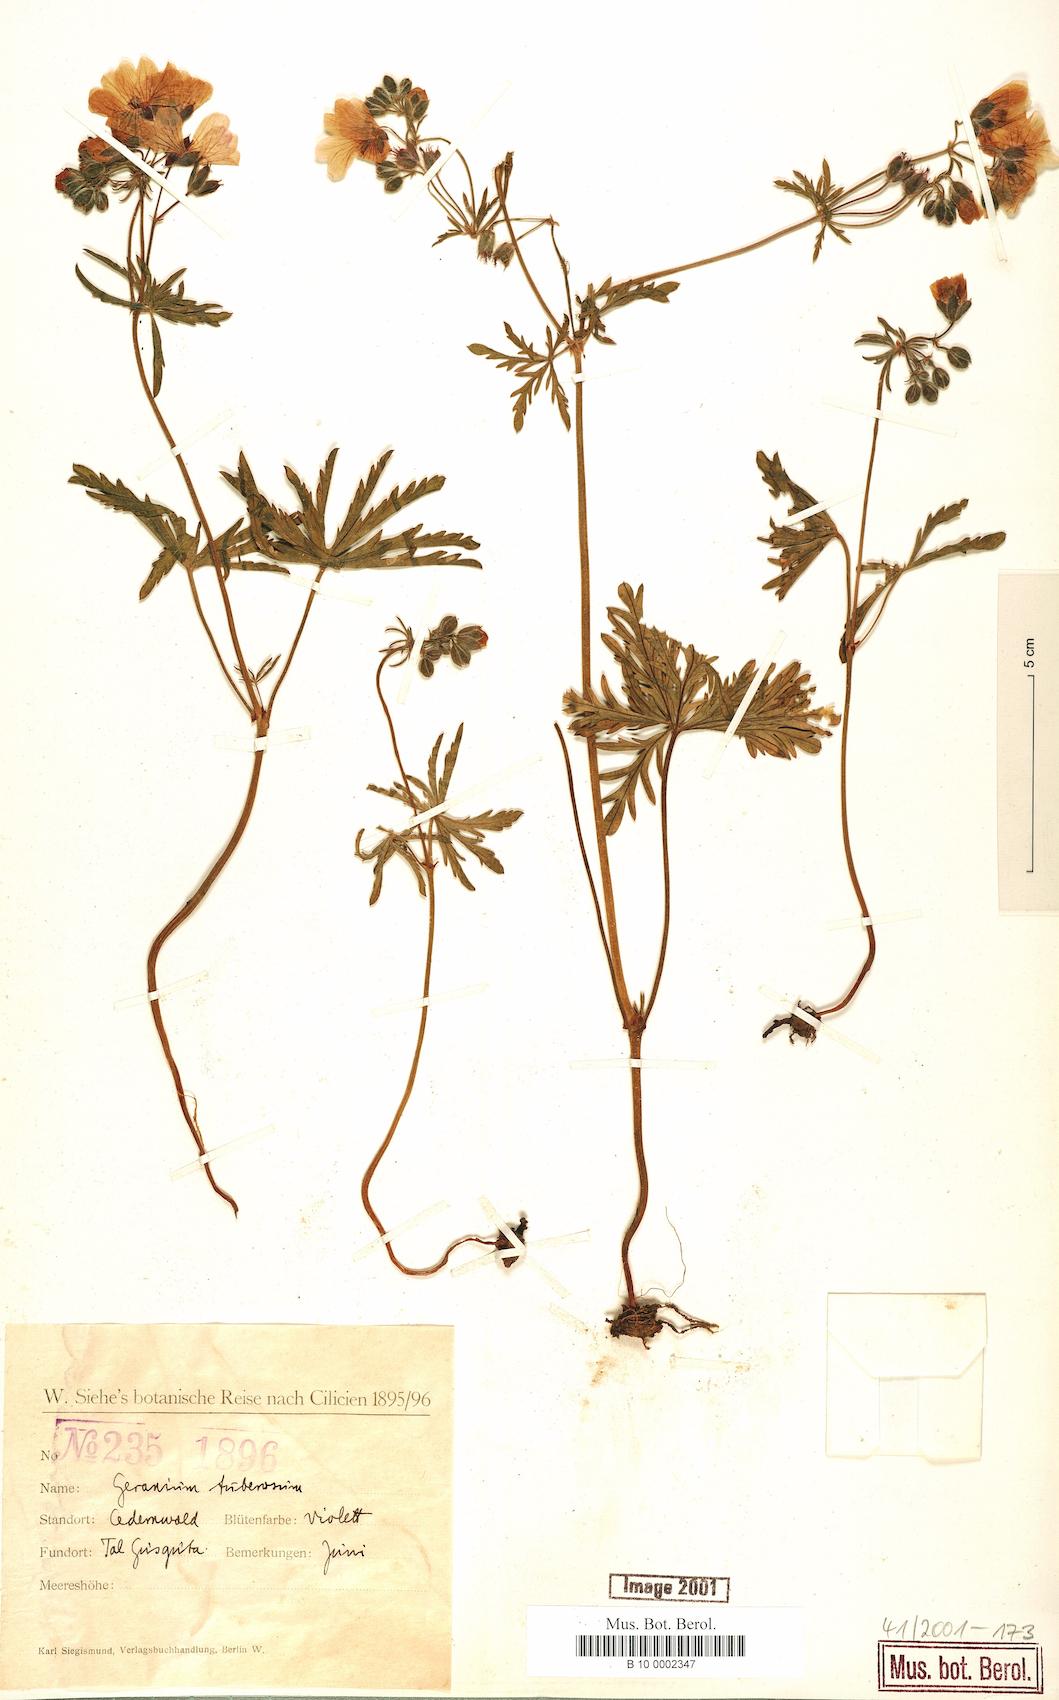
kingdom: Plantae
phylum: Tracheophyta
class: Magnoliopsida
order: Geraniales
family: Geraniaceae
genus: Geranium
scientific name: Geranium tuberosum
